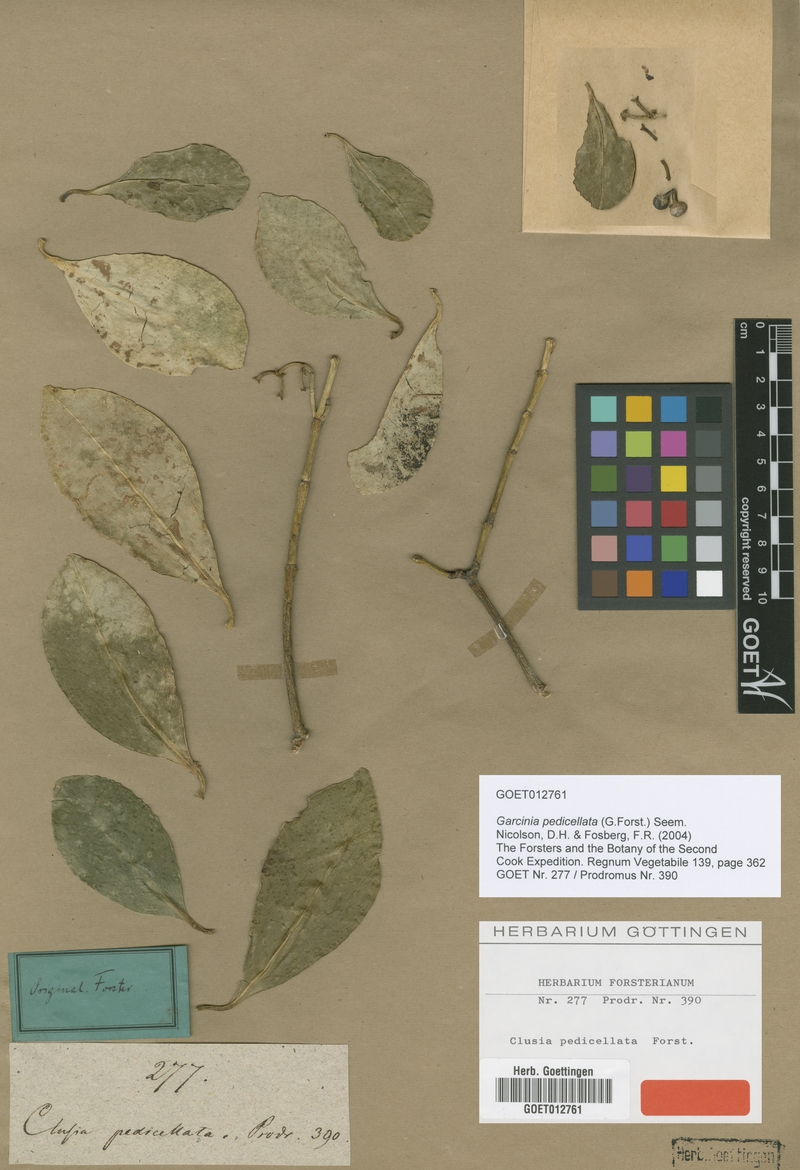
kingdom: Plantae
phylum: Tracheophyta
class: Magnoliopsida
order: Malpighiales
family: Clusiaceae
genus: Garcinia
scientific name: Garcinia pseudoguttifera
